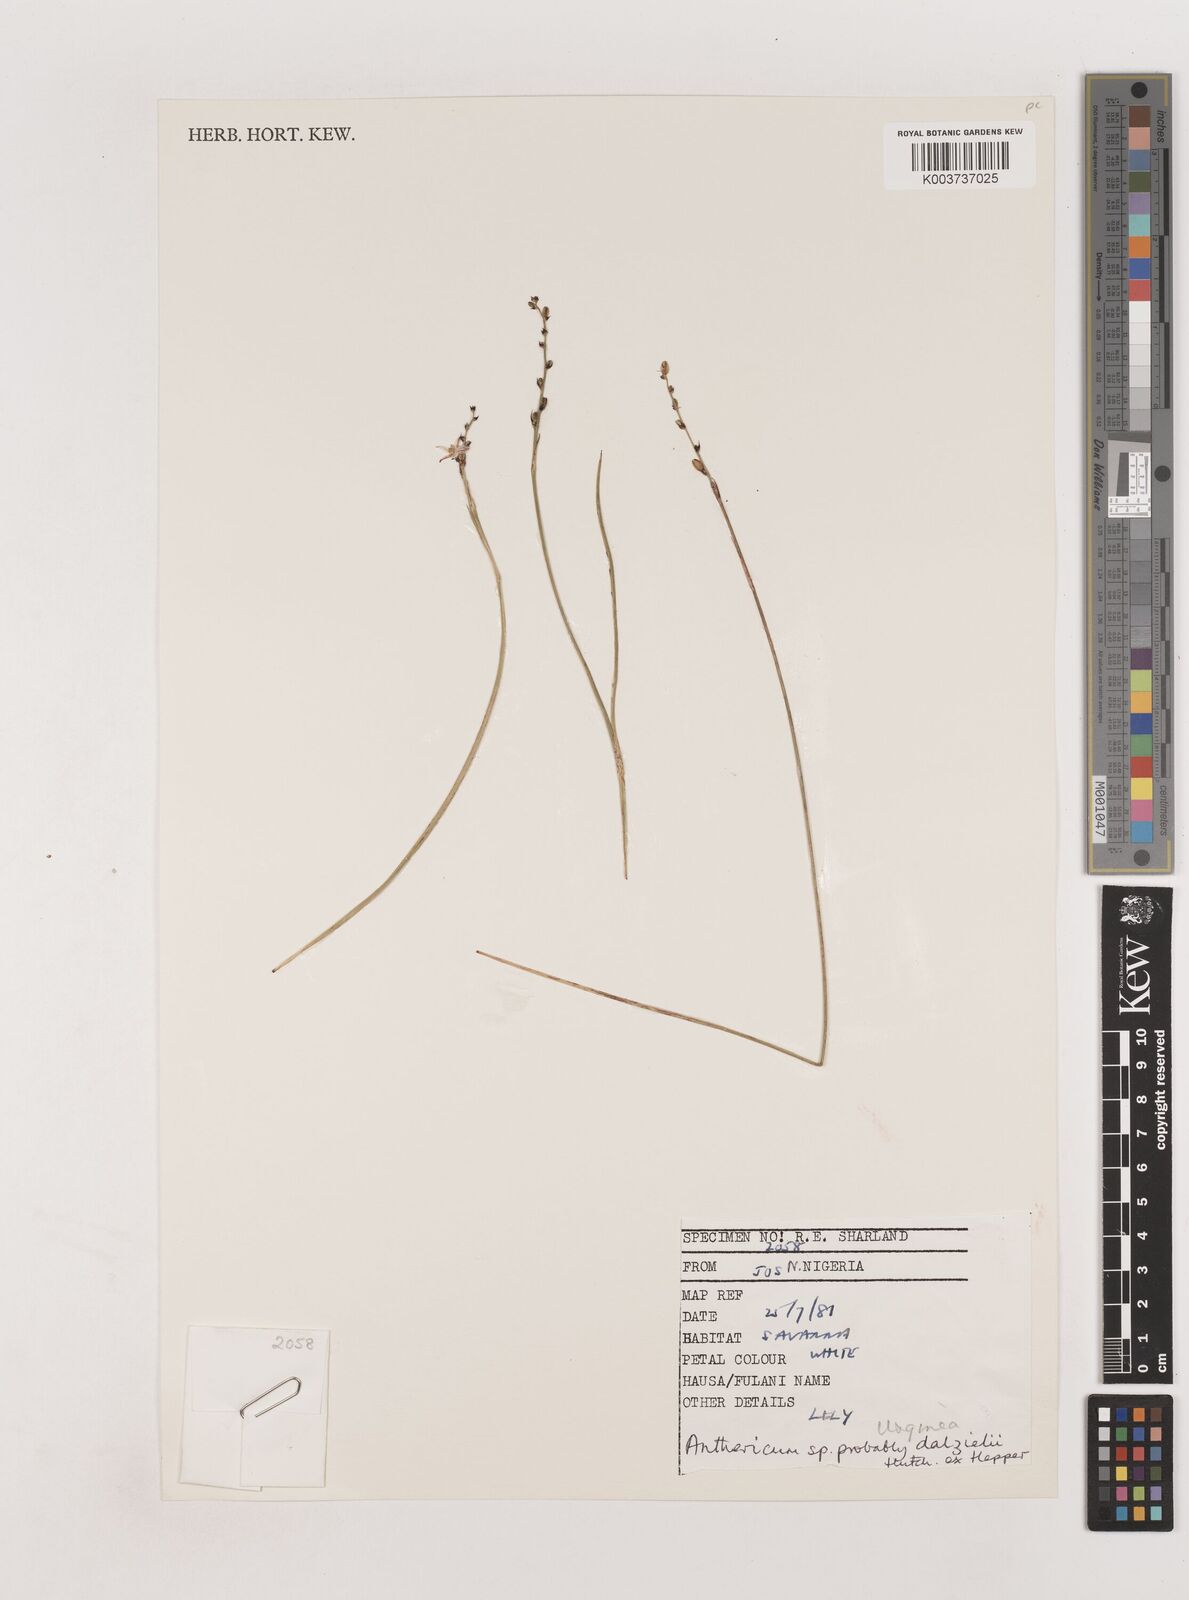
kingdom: Plantae
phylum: Tracheophyta
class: Liliopsida
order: Asparagales
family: Asparagaceae
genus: Chlorophytum
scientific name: Chlorophytum dalzielii
